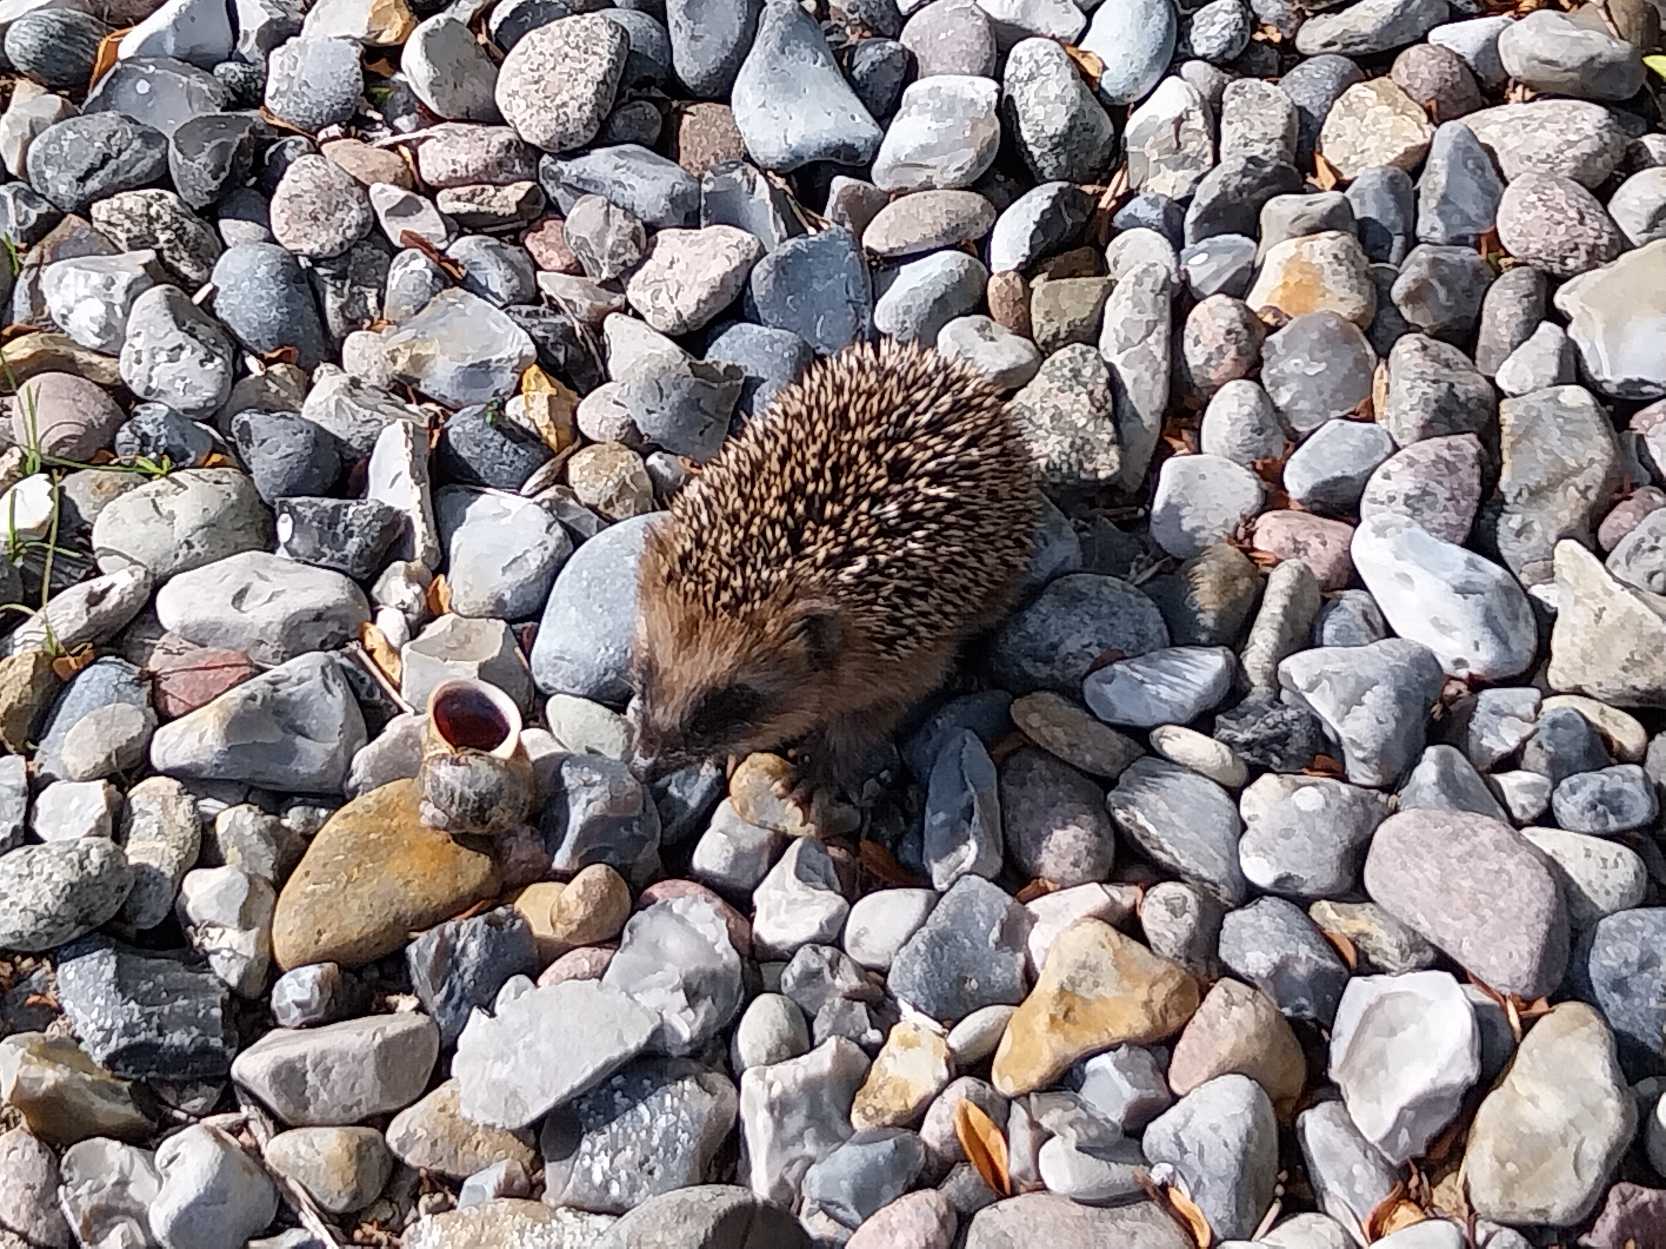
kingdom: Animalia
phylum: Chordata
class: Mammalia
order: Erinaceomorpha
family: Erinaceidae
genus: Erinaceus
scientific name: Erinaceus europaeus
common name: Pindsvin
